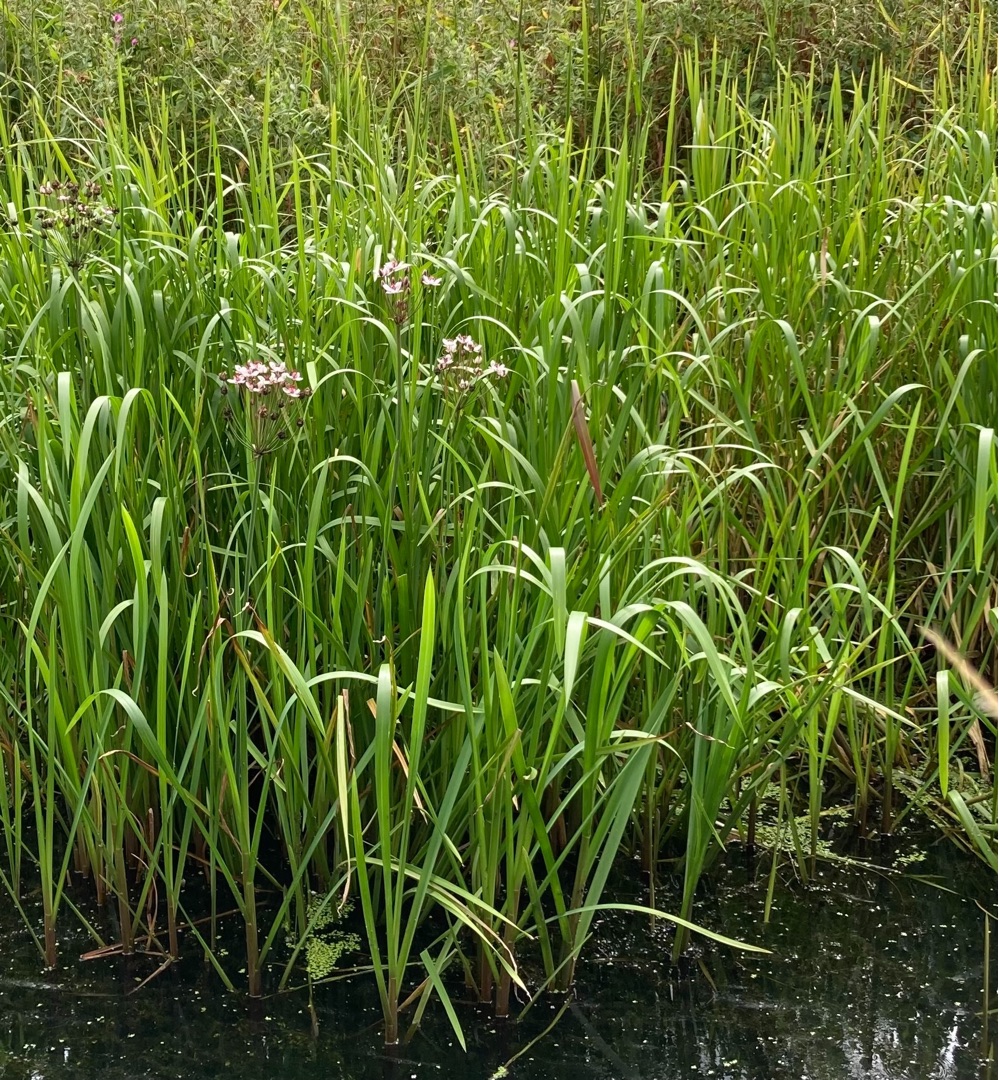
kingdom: Plantae
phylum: Tracheophyta
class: Liliopsida
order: Alismatales
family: Butomaceae
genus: Butomus
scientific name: Butomus umbellatus
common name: Brudelys
